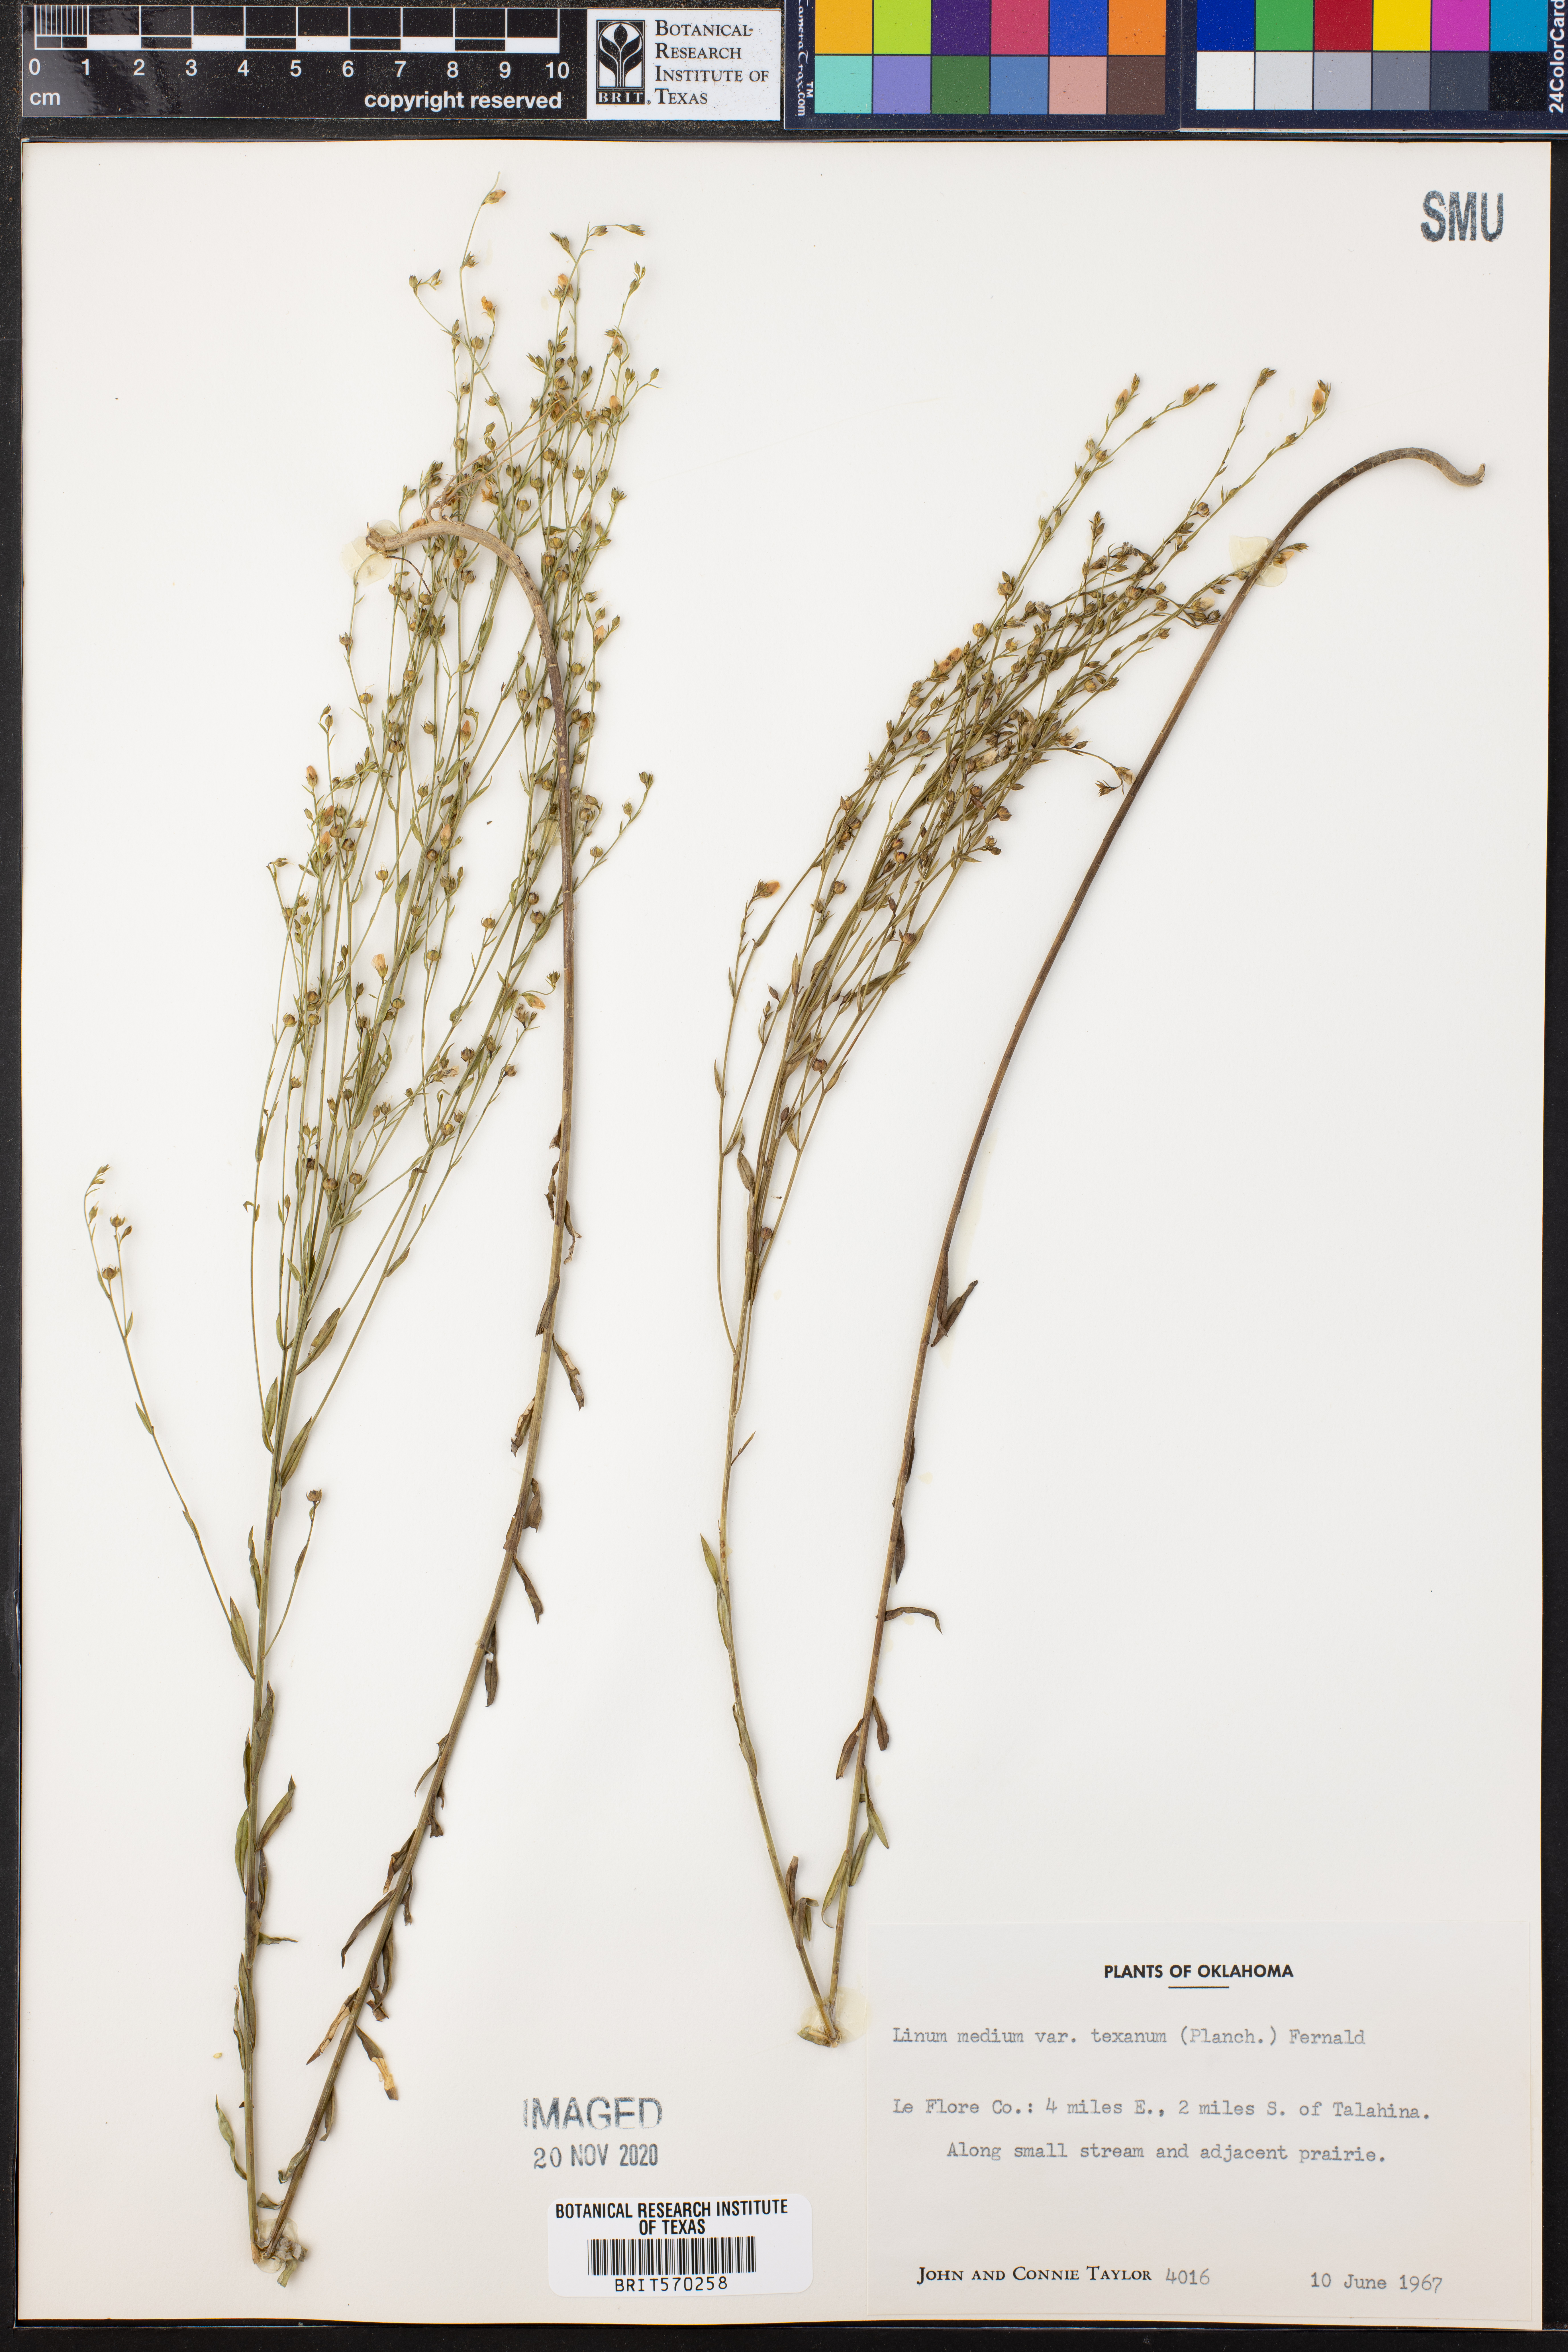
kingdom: Plantae
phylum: Tracheophyta
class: Magnoliopsida
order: Malpighiales
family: Linaceae
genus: Linum
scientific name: Linum medium
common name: Stiff yellow flax
